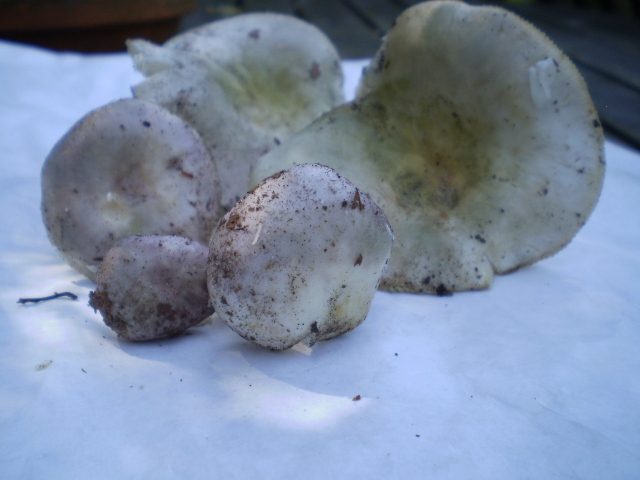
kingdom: Fungi
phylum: Basidiomycota
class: Agaricomycetes
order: Russulales
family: Russulaceae
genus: Russula
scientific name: Russula ionochlora
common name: violetgrøn skørhat
